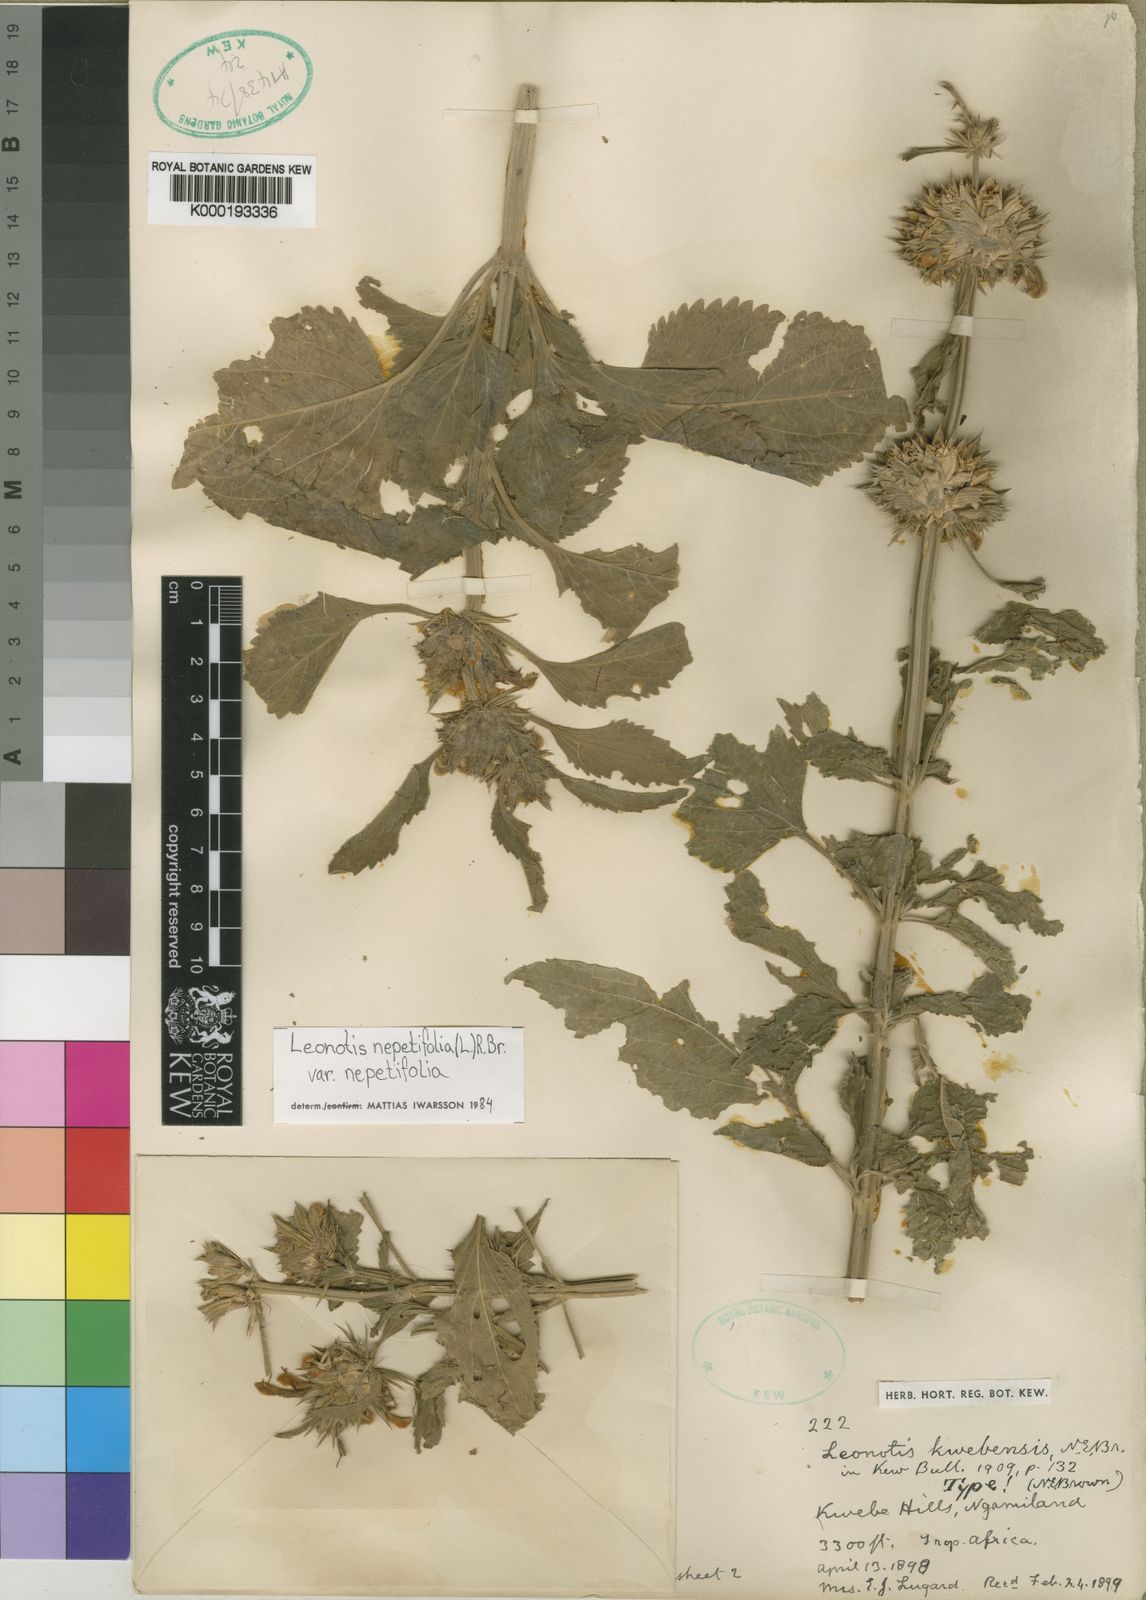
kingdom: Plantae
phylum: Tracheophyta
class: Magnoliopsida
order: Lamiales
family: Lamiaceae
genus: Leonotis
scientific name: Leonotis nepetifolia
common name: Christmas candlestick
